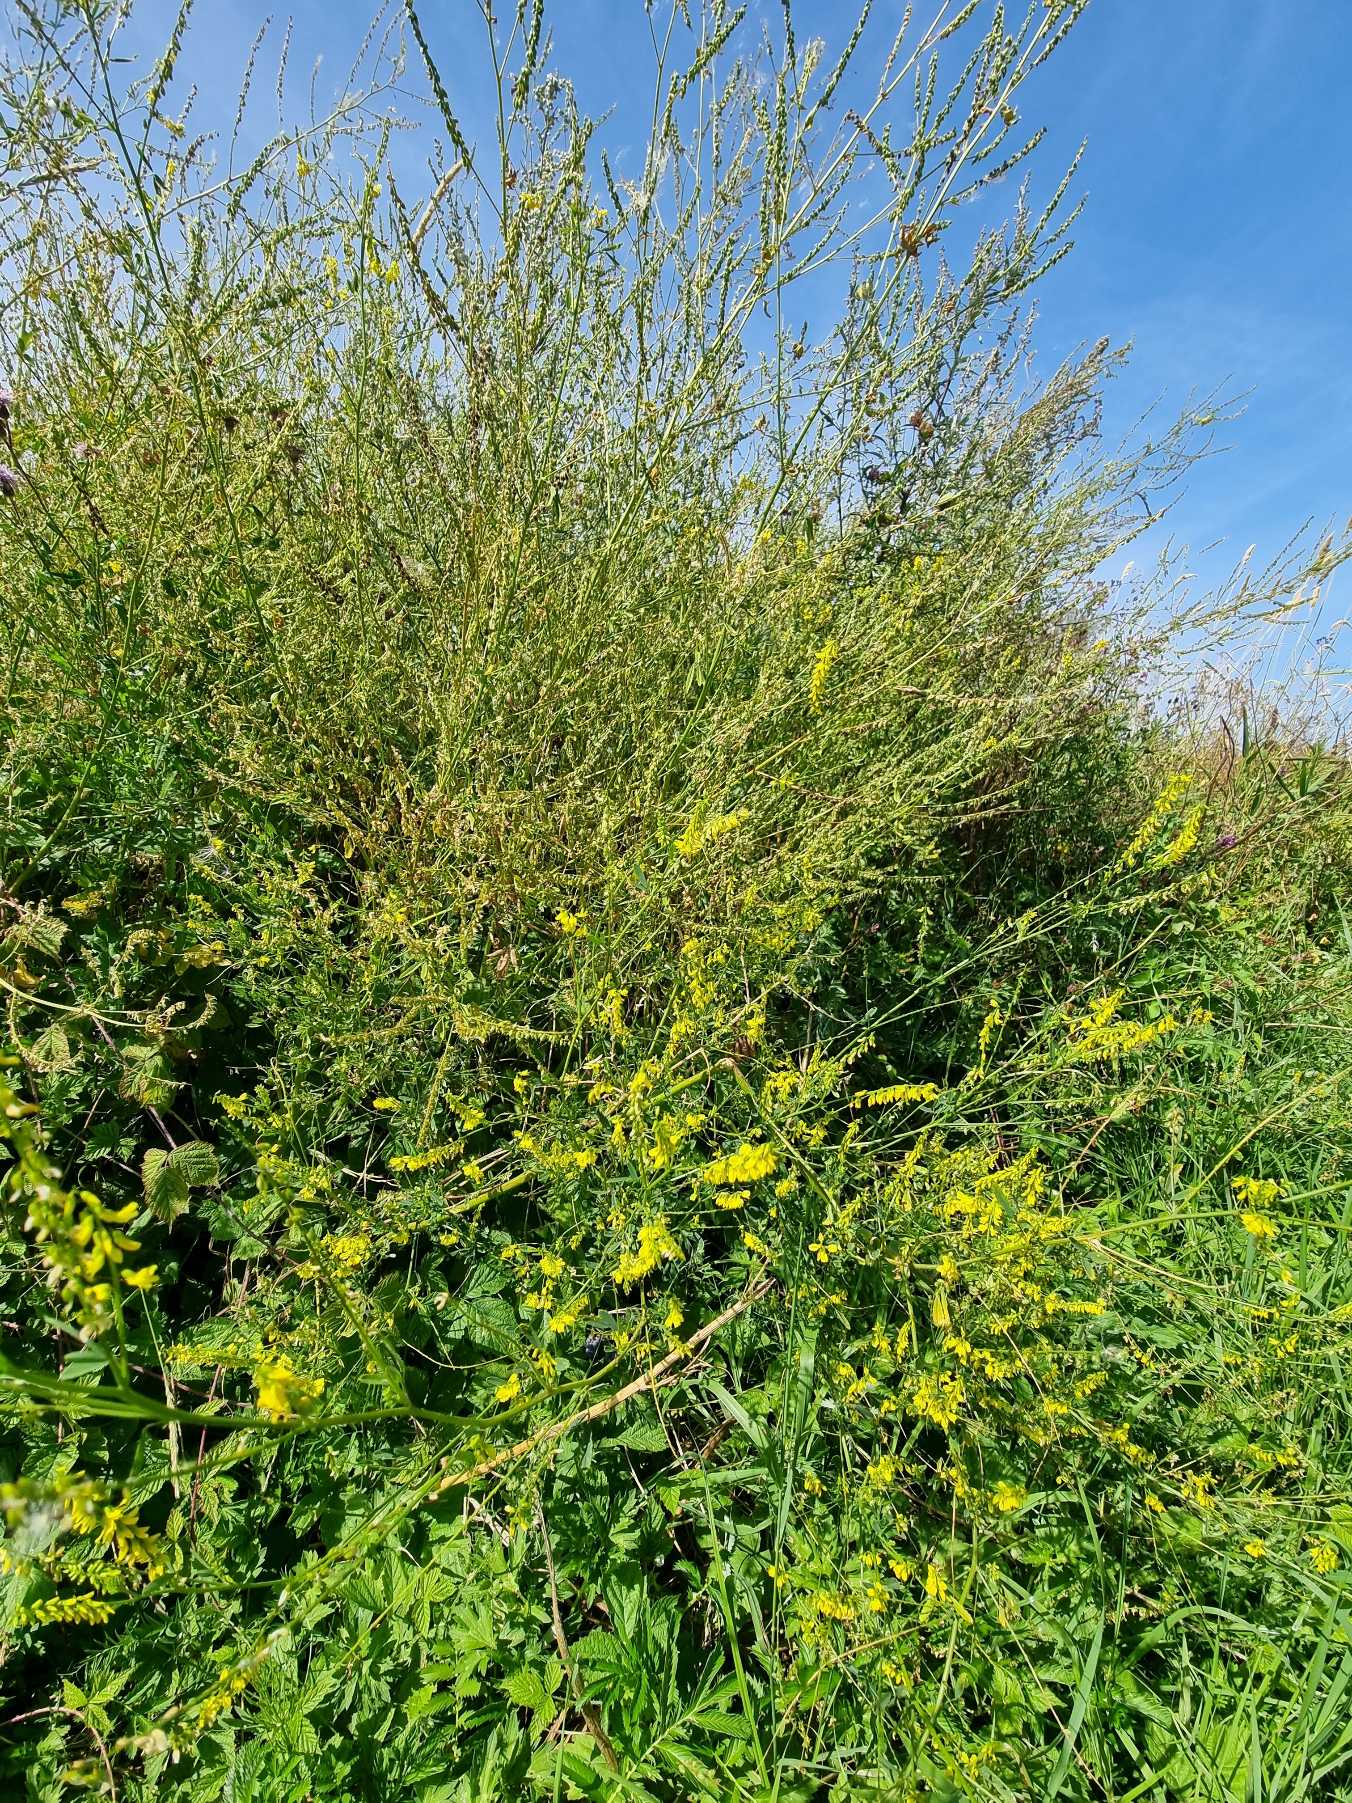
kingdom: Plantae
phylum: Tracheophyta
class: Magnoliopsida
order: Fabales
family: Fabaceae
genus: Melilotus
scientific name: Melilotus
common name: Stenkløverslægten
